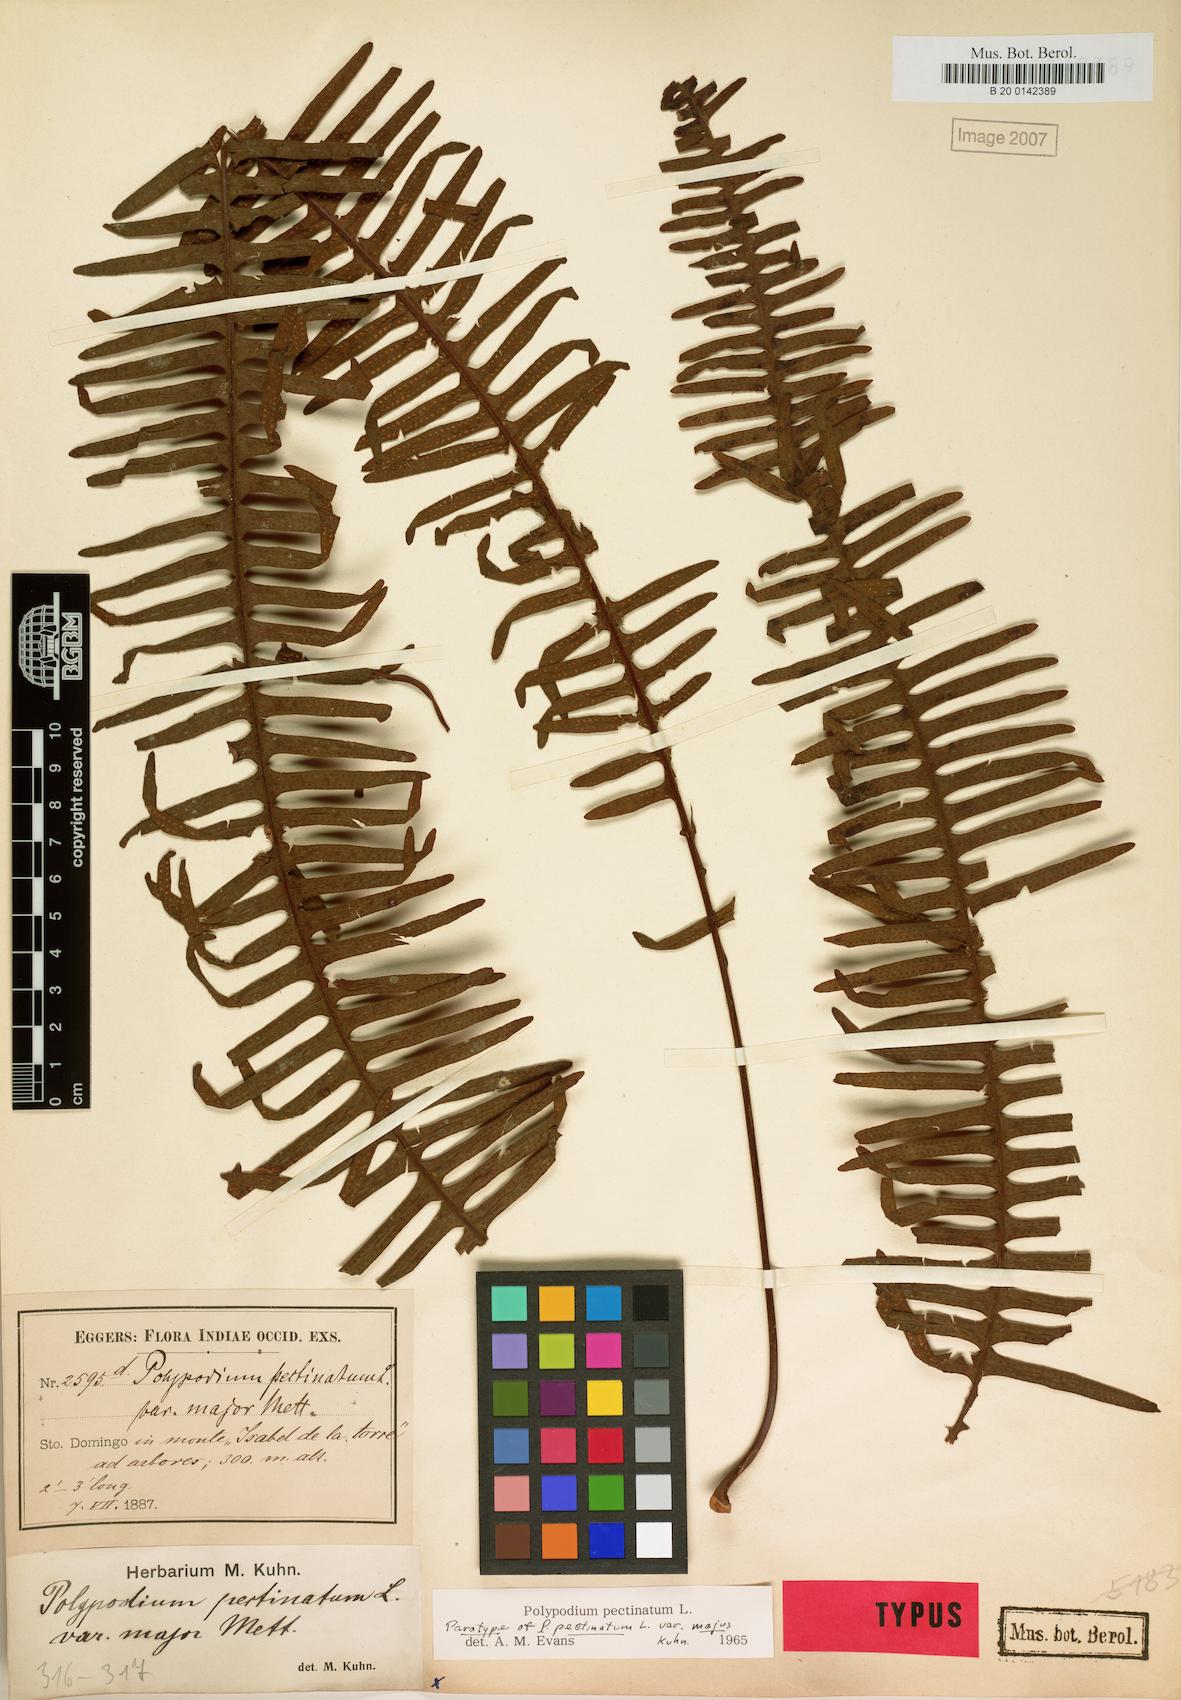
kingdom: Plantae
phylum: Tracheophyta
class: Polypodiopsida
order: Polypodiales
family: Polypodiaceae
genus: Pecluma
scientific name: Pecluma pectinata
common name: Msasa fern
